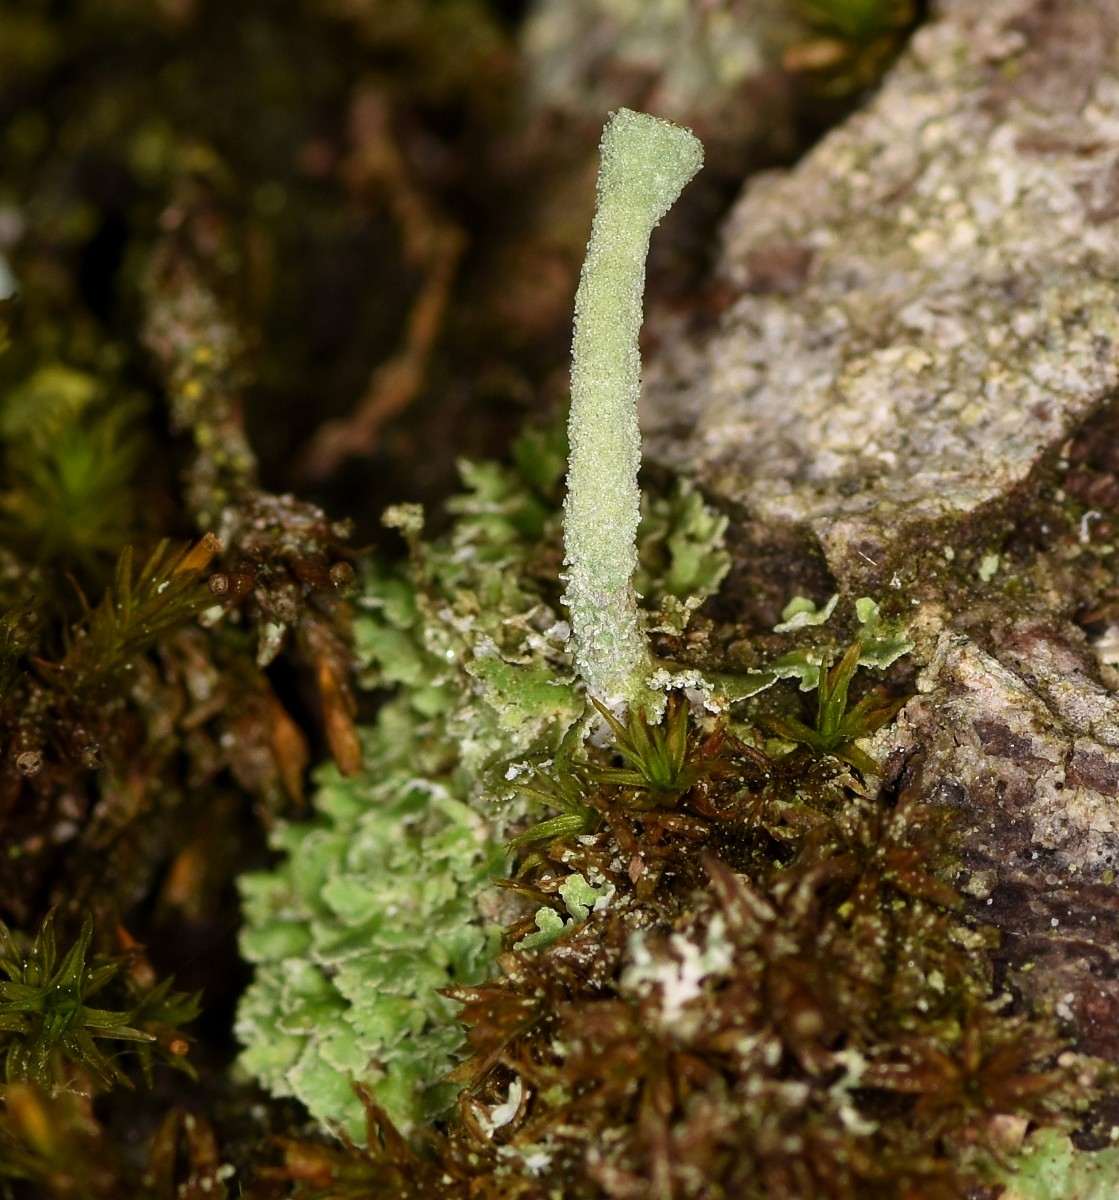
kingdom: Fungi
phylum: Ascomycota
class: Lecanoromycetes
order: Lecanorales
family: Cladoniaceae
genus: Cladonia
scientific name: Cladonia fimbriata
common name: bleggrøn bægerlav
